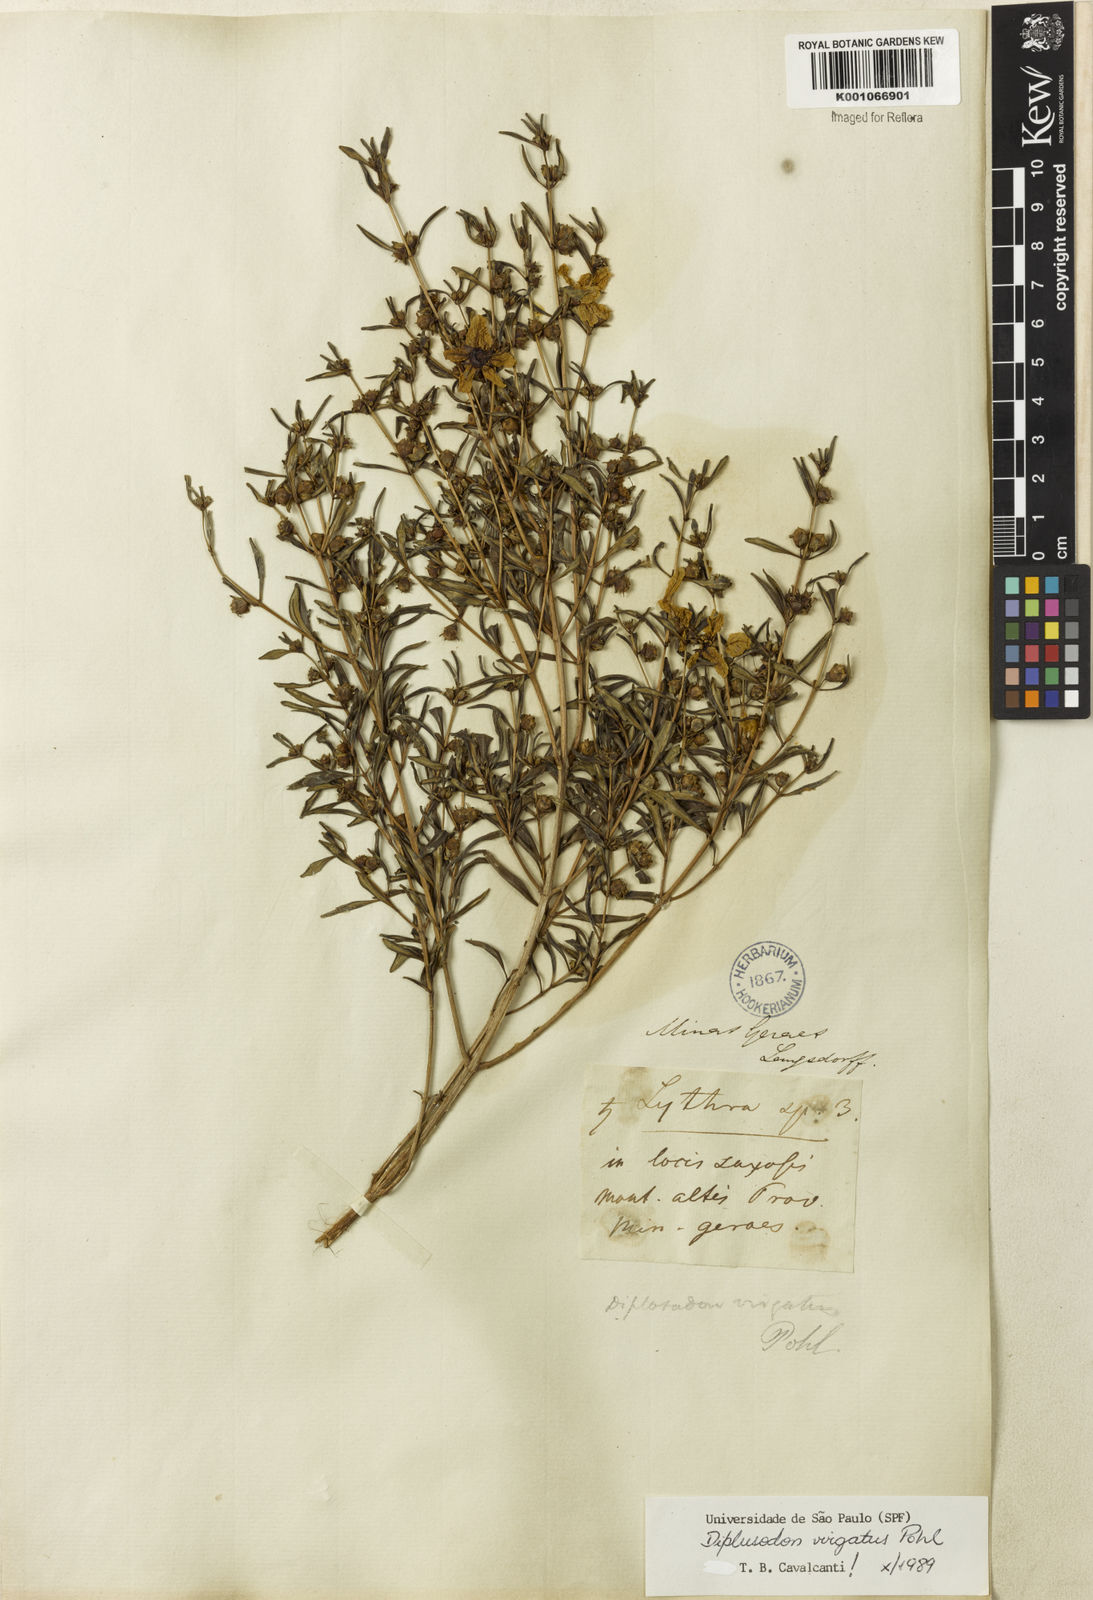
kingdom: Plantae
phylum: Tracheophyta
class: Magnoliopsida
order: Myrtales
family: Lythraceae
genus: Diplusodon
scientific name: Diplusodon virgatus
